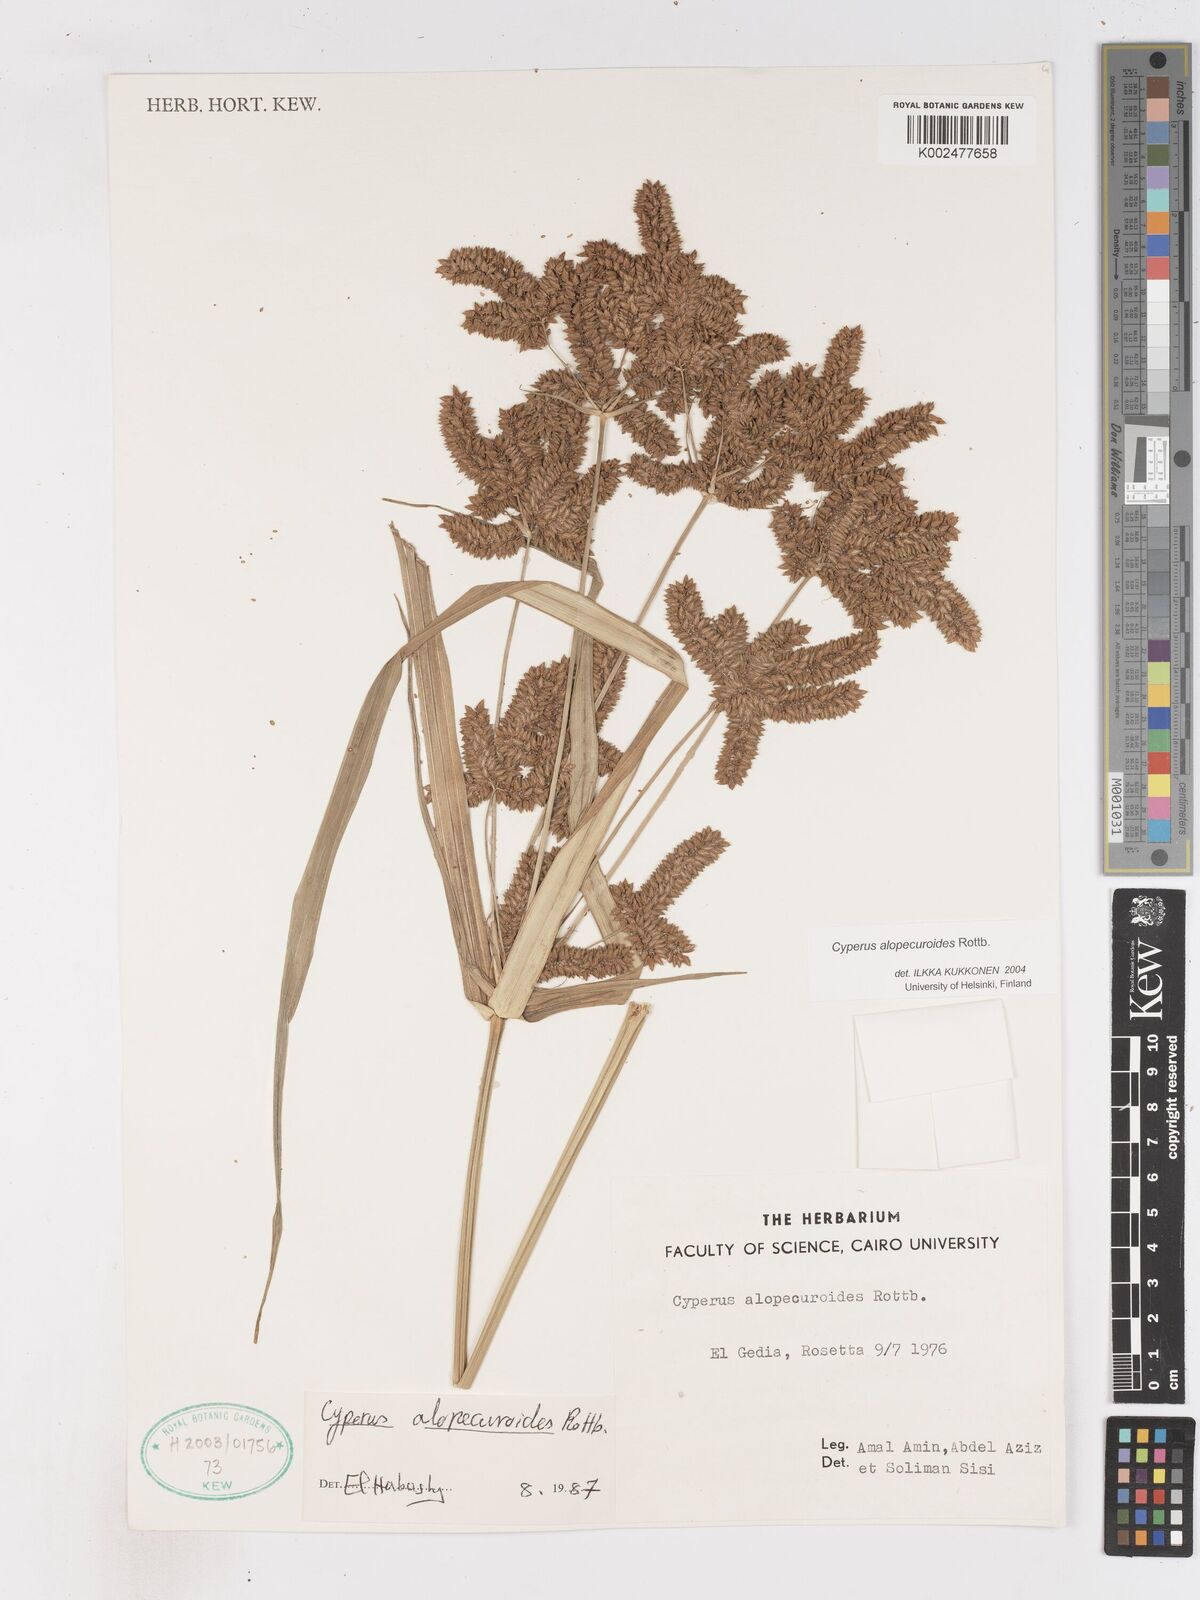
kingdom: Plantae
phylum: Tracheophyta
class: Liliopsida
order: Poales
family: Cyperaceae
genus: Cyperus
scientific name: Cyperus alopecuroides
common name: Foxtail flatsedge
